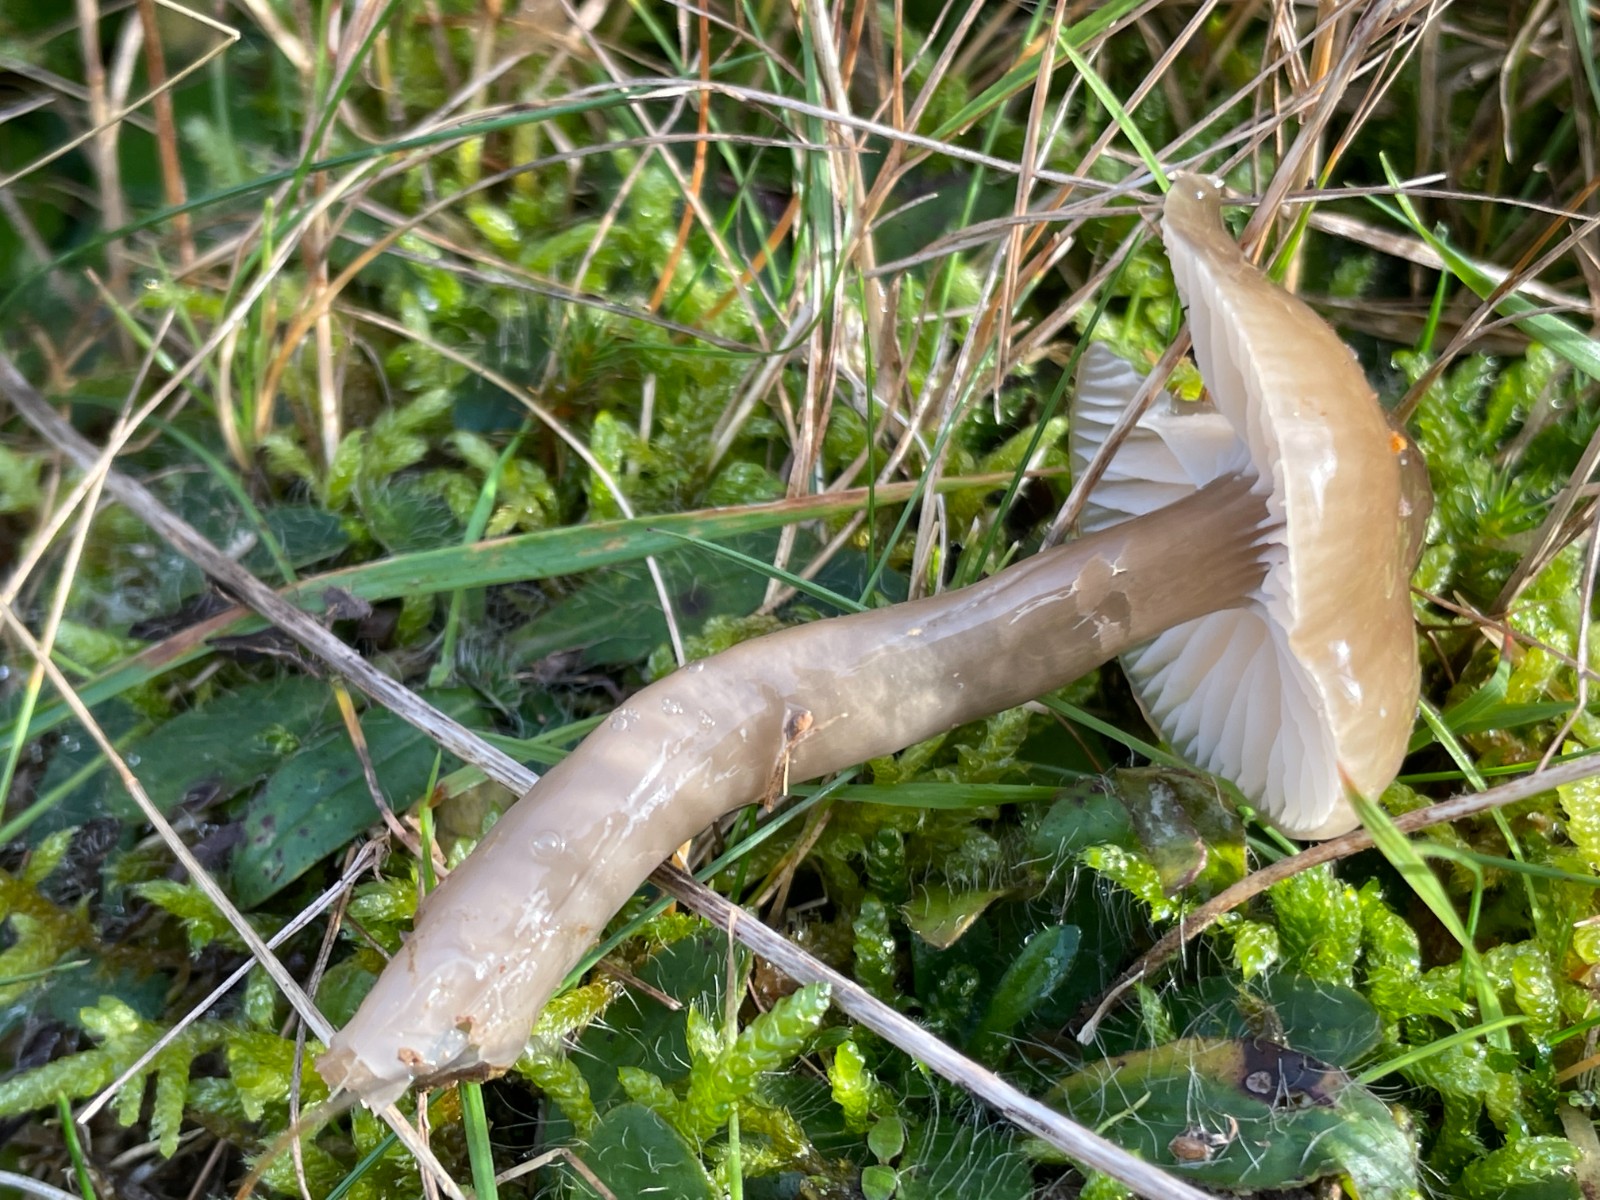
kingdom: Fungi
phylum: Basidiomycota
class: Agaricomycetes
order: Agaricales
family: Hygrophoraceae
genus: Gliophorus
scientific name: Gliophorus irrigatus
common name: slimet vokshat
